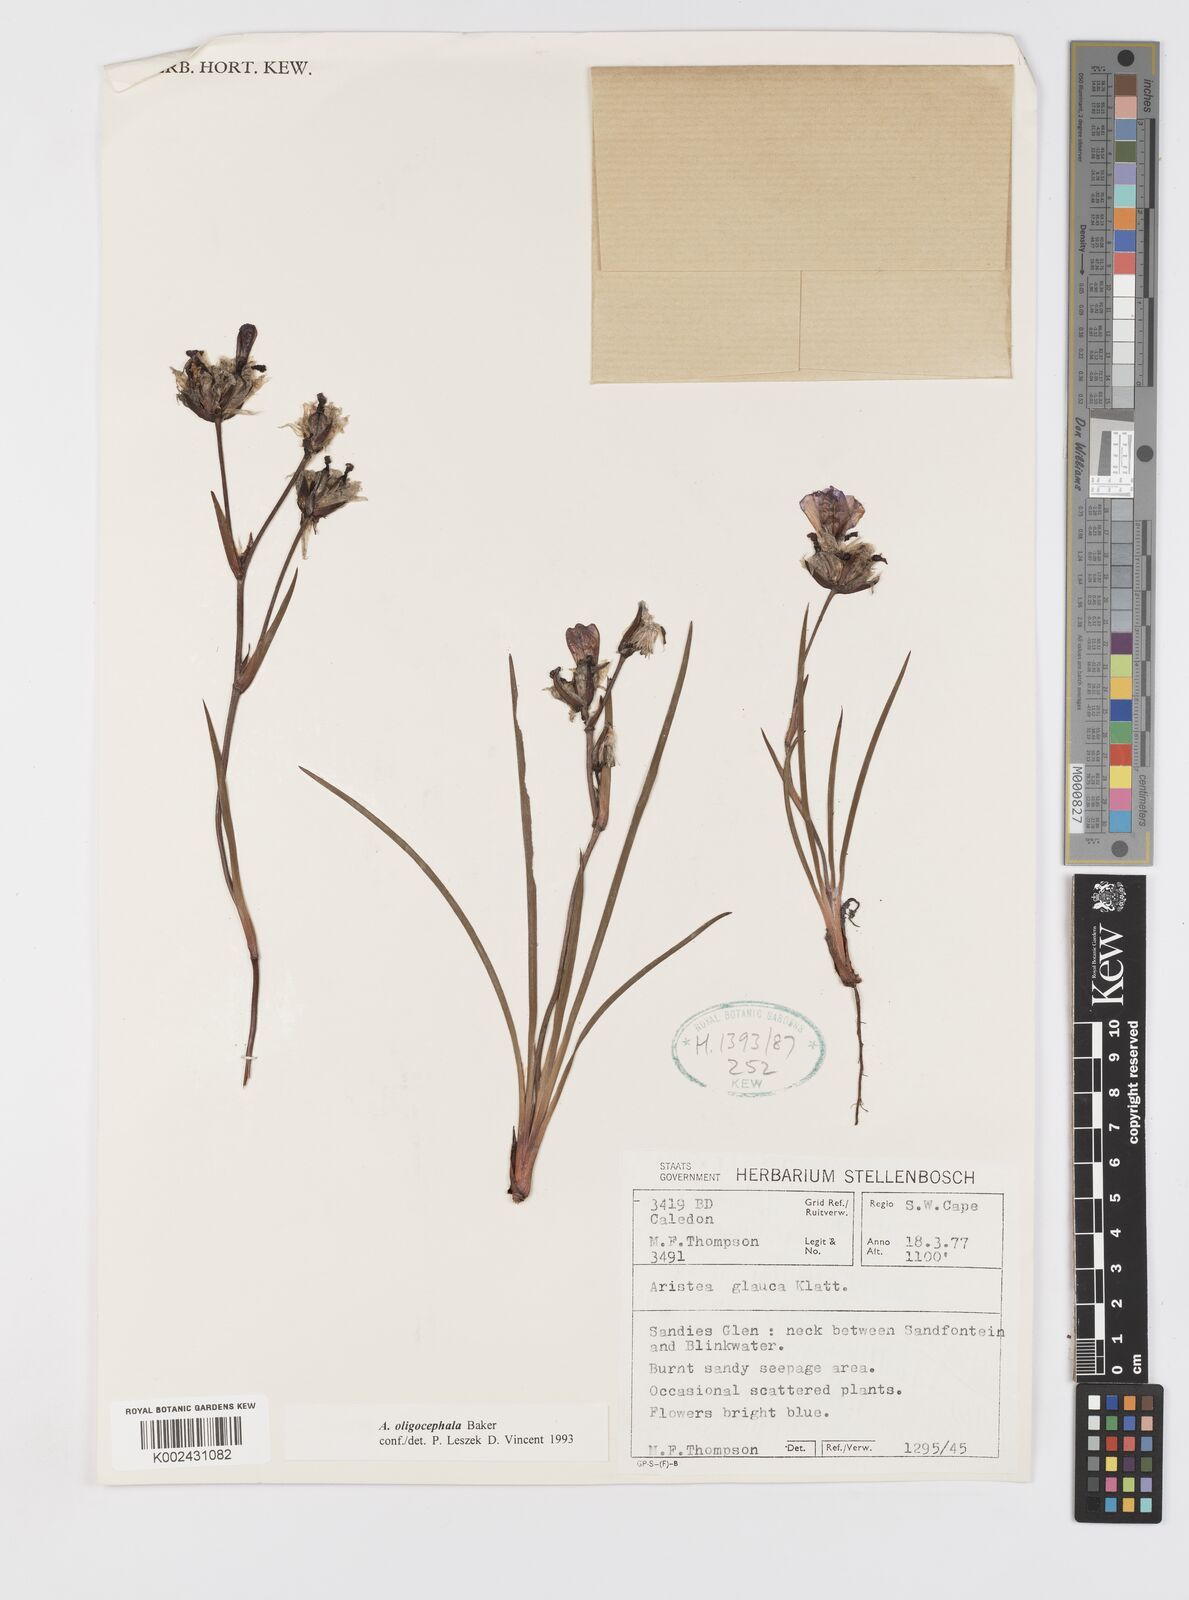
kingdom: Plantae
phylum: Tracheophyta
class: Liliopsida
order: Asparagales
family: Iridaceae
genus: Aristea
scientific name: Aristea oligocephala
